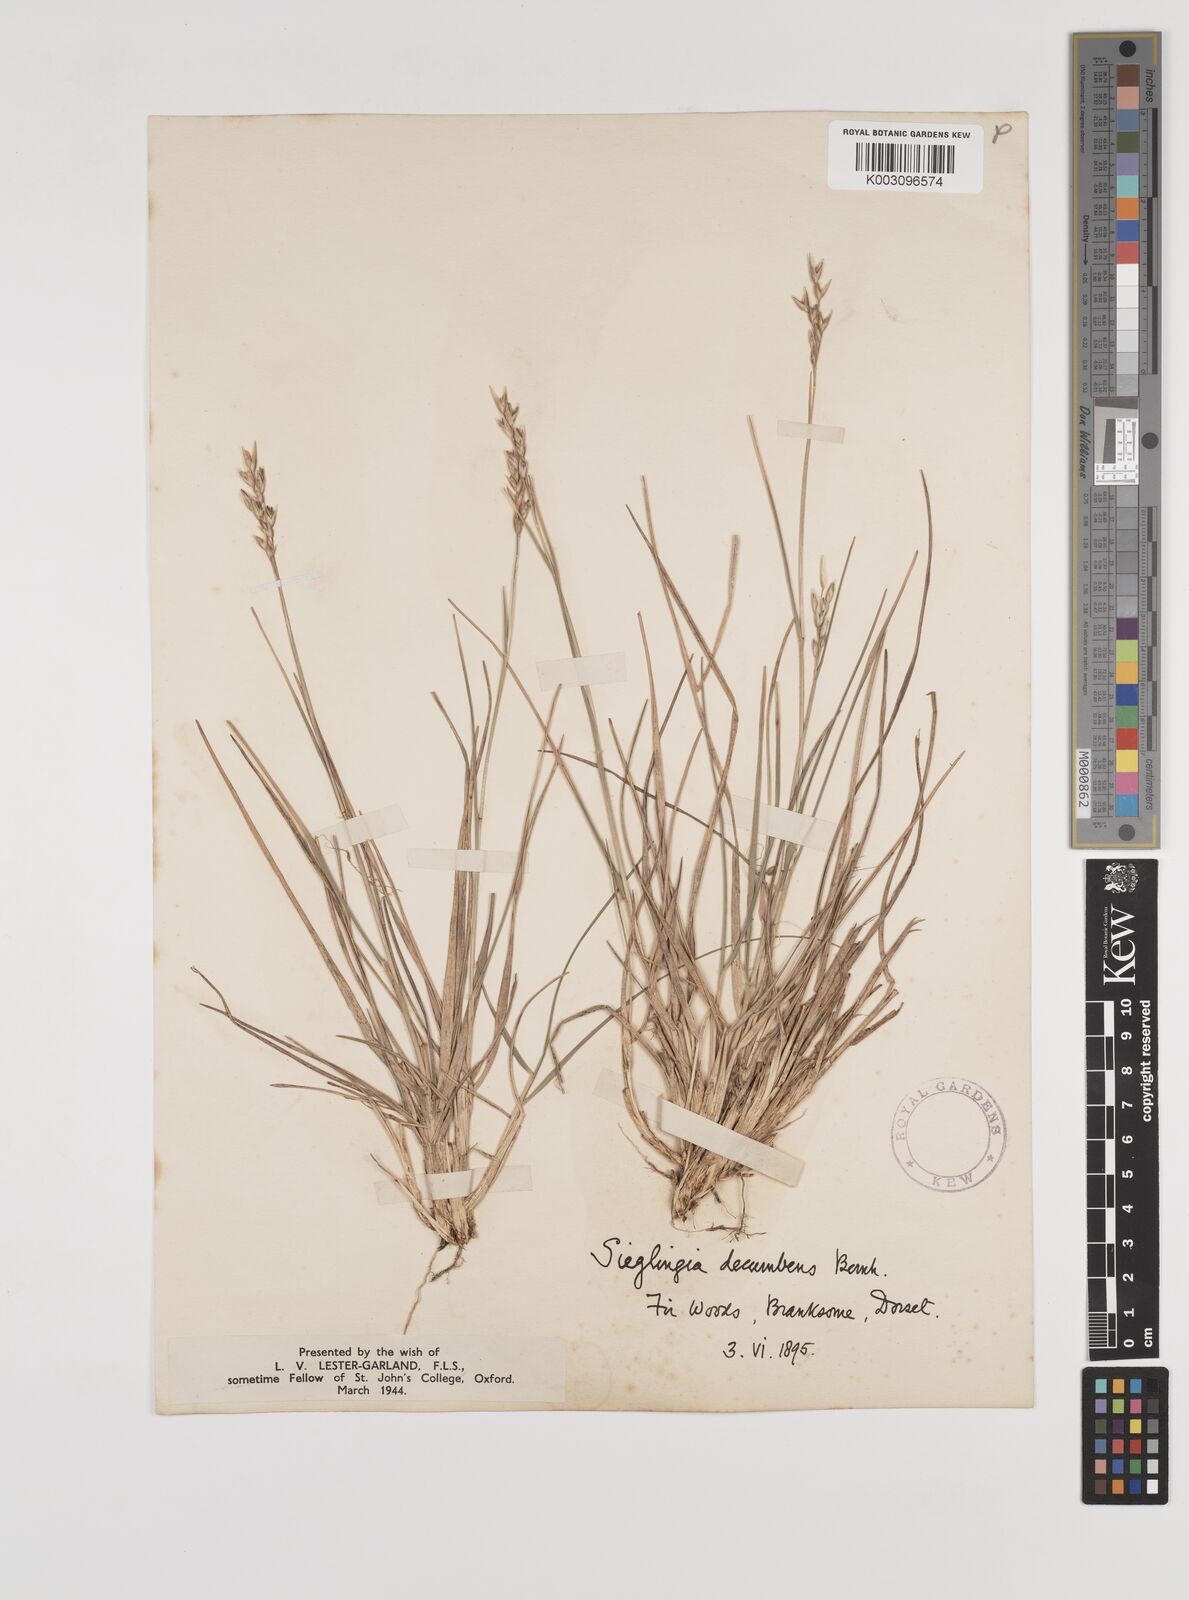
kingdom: Plantae
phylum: Tracheophyta
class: Liliopsida
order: Poales
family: Poaceae
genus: Danthonia
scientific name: Danthonia decumbens
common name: Common heathgrass
